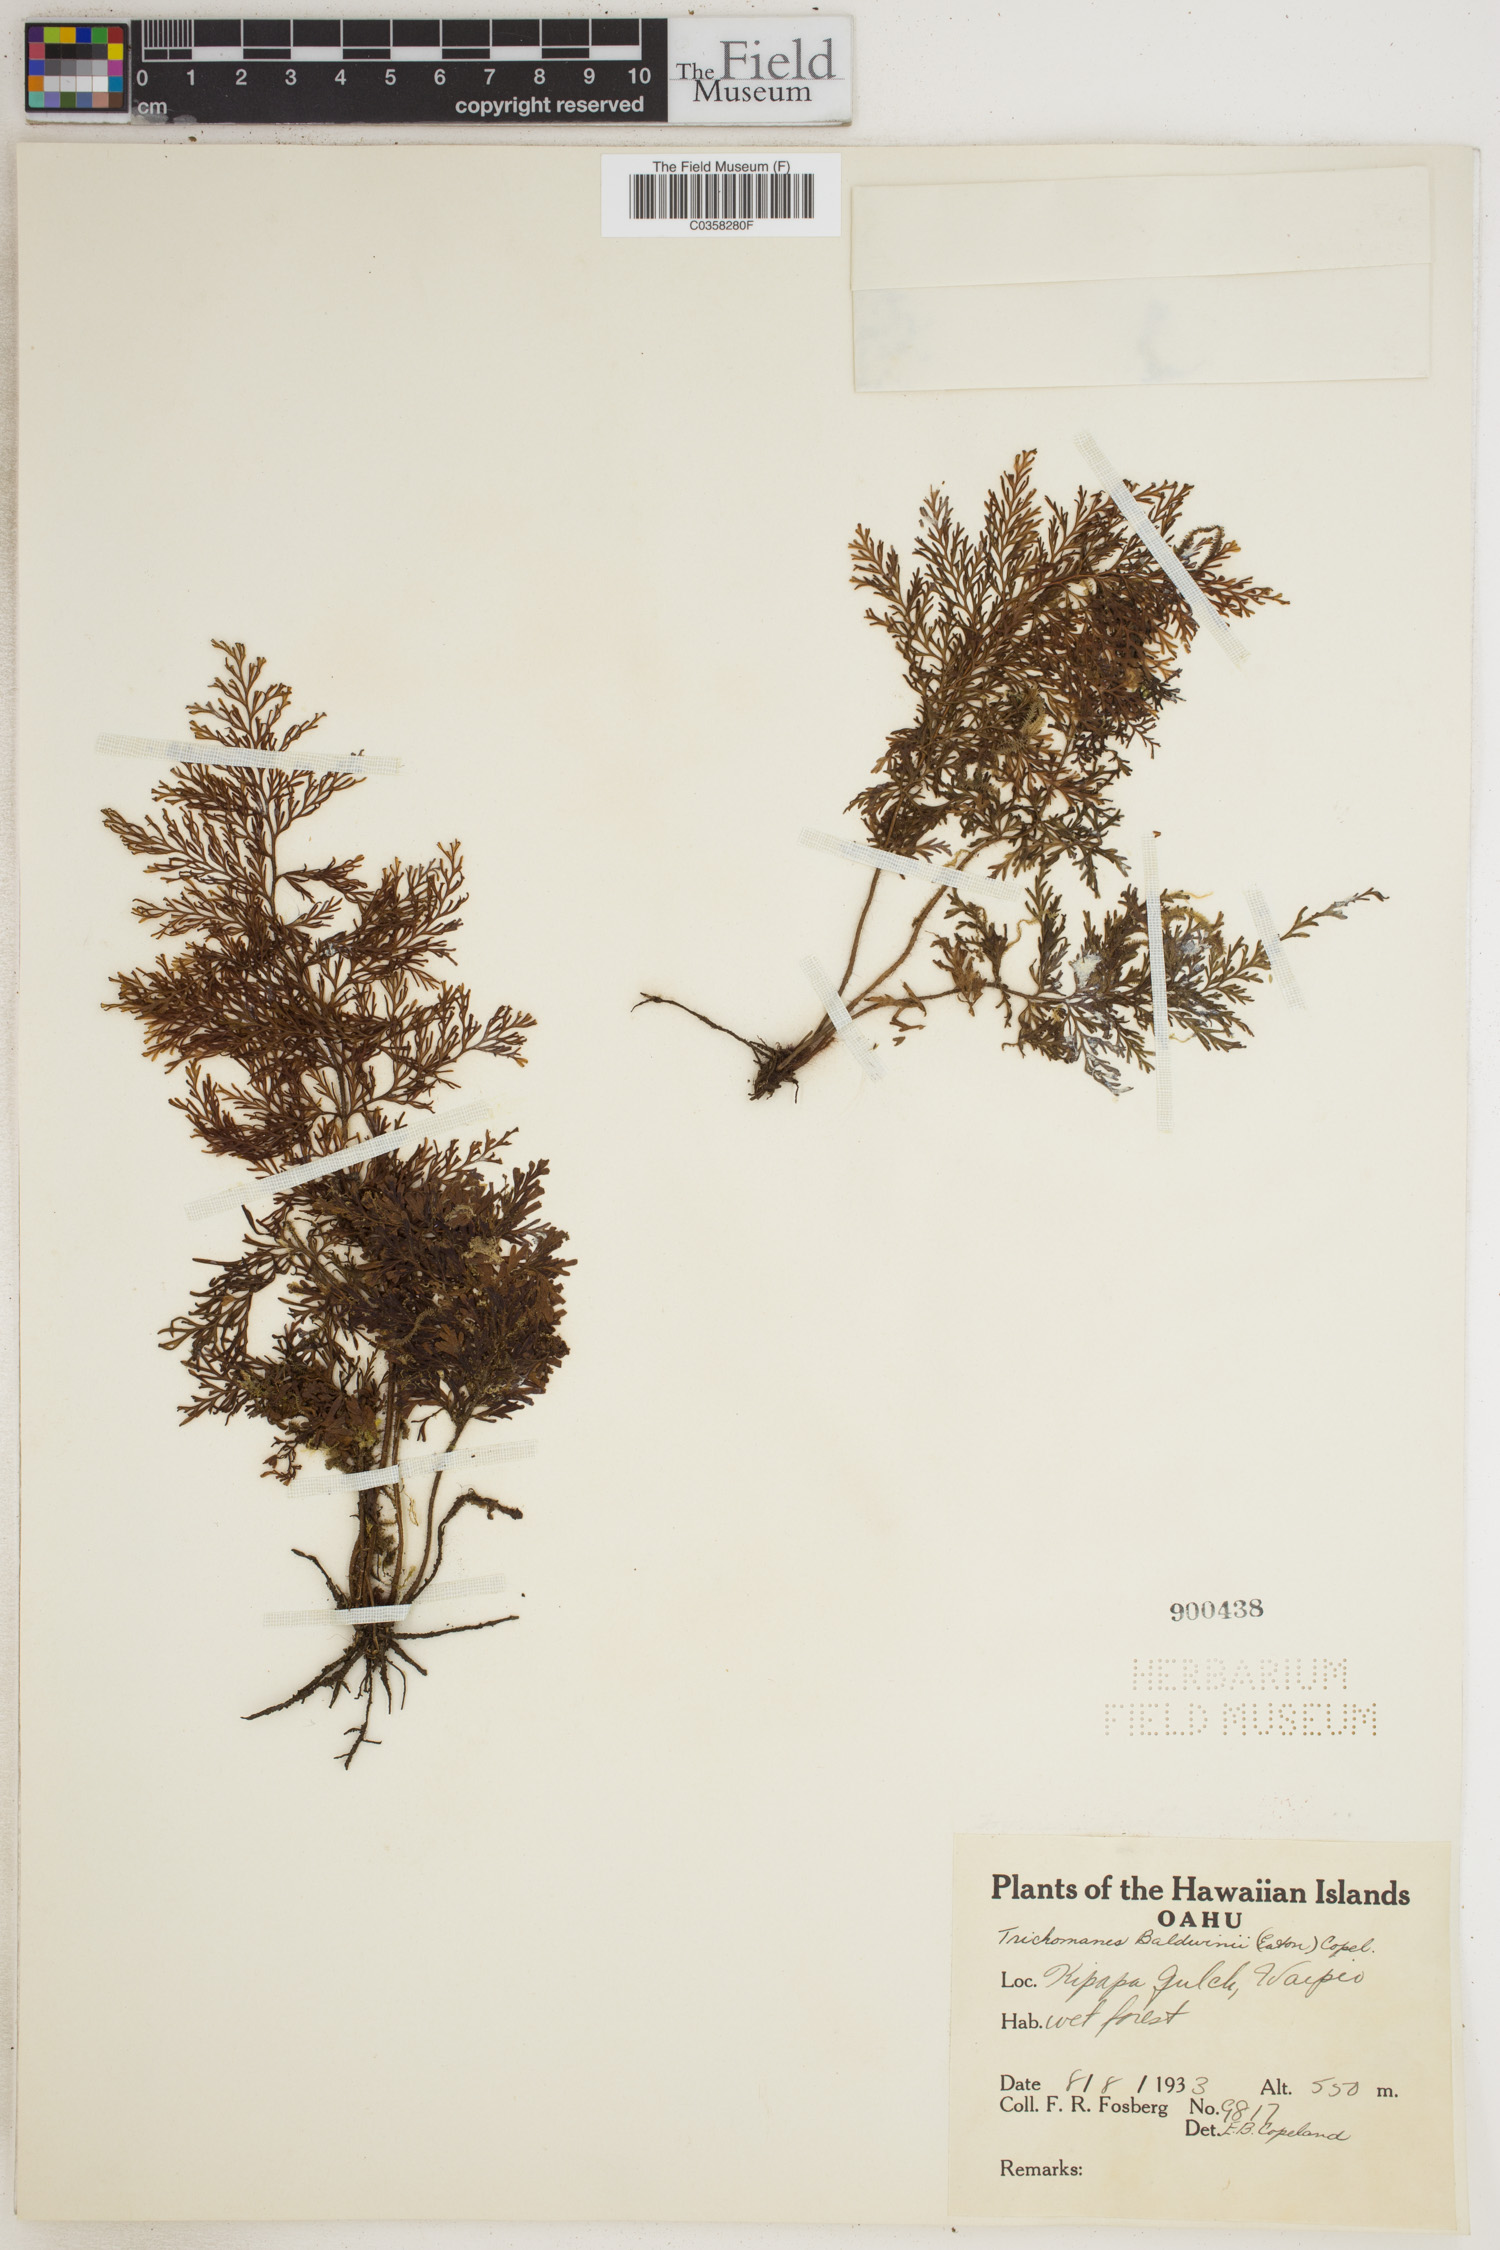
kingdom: Plantae
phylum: Tracheophyta
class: Polypodiopsida
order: Hymenophyllales
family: Hymenophyllaceae
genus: Callistopteris
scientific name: Callistopteris baldwinii
